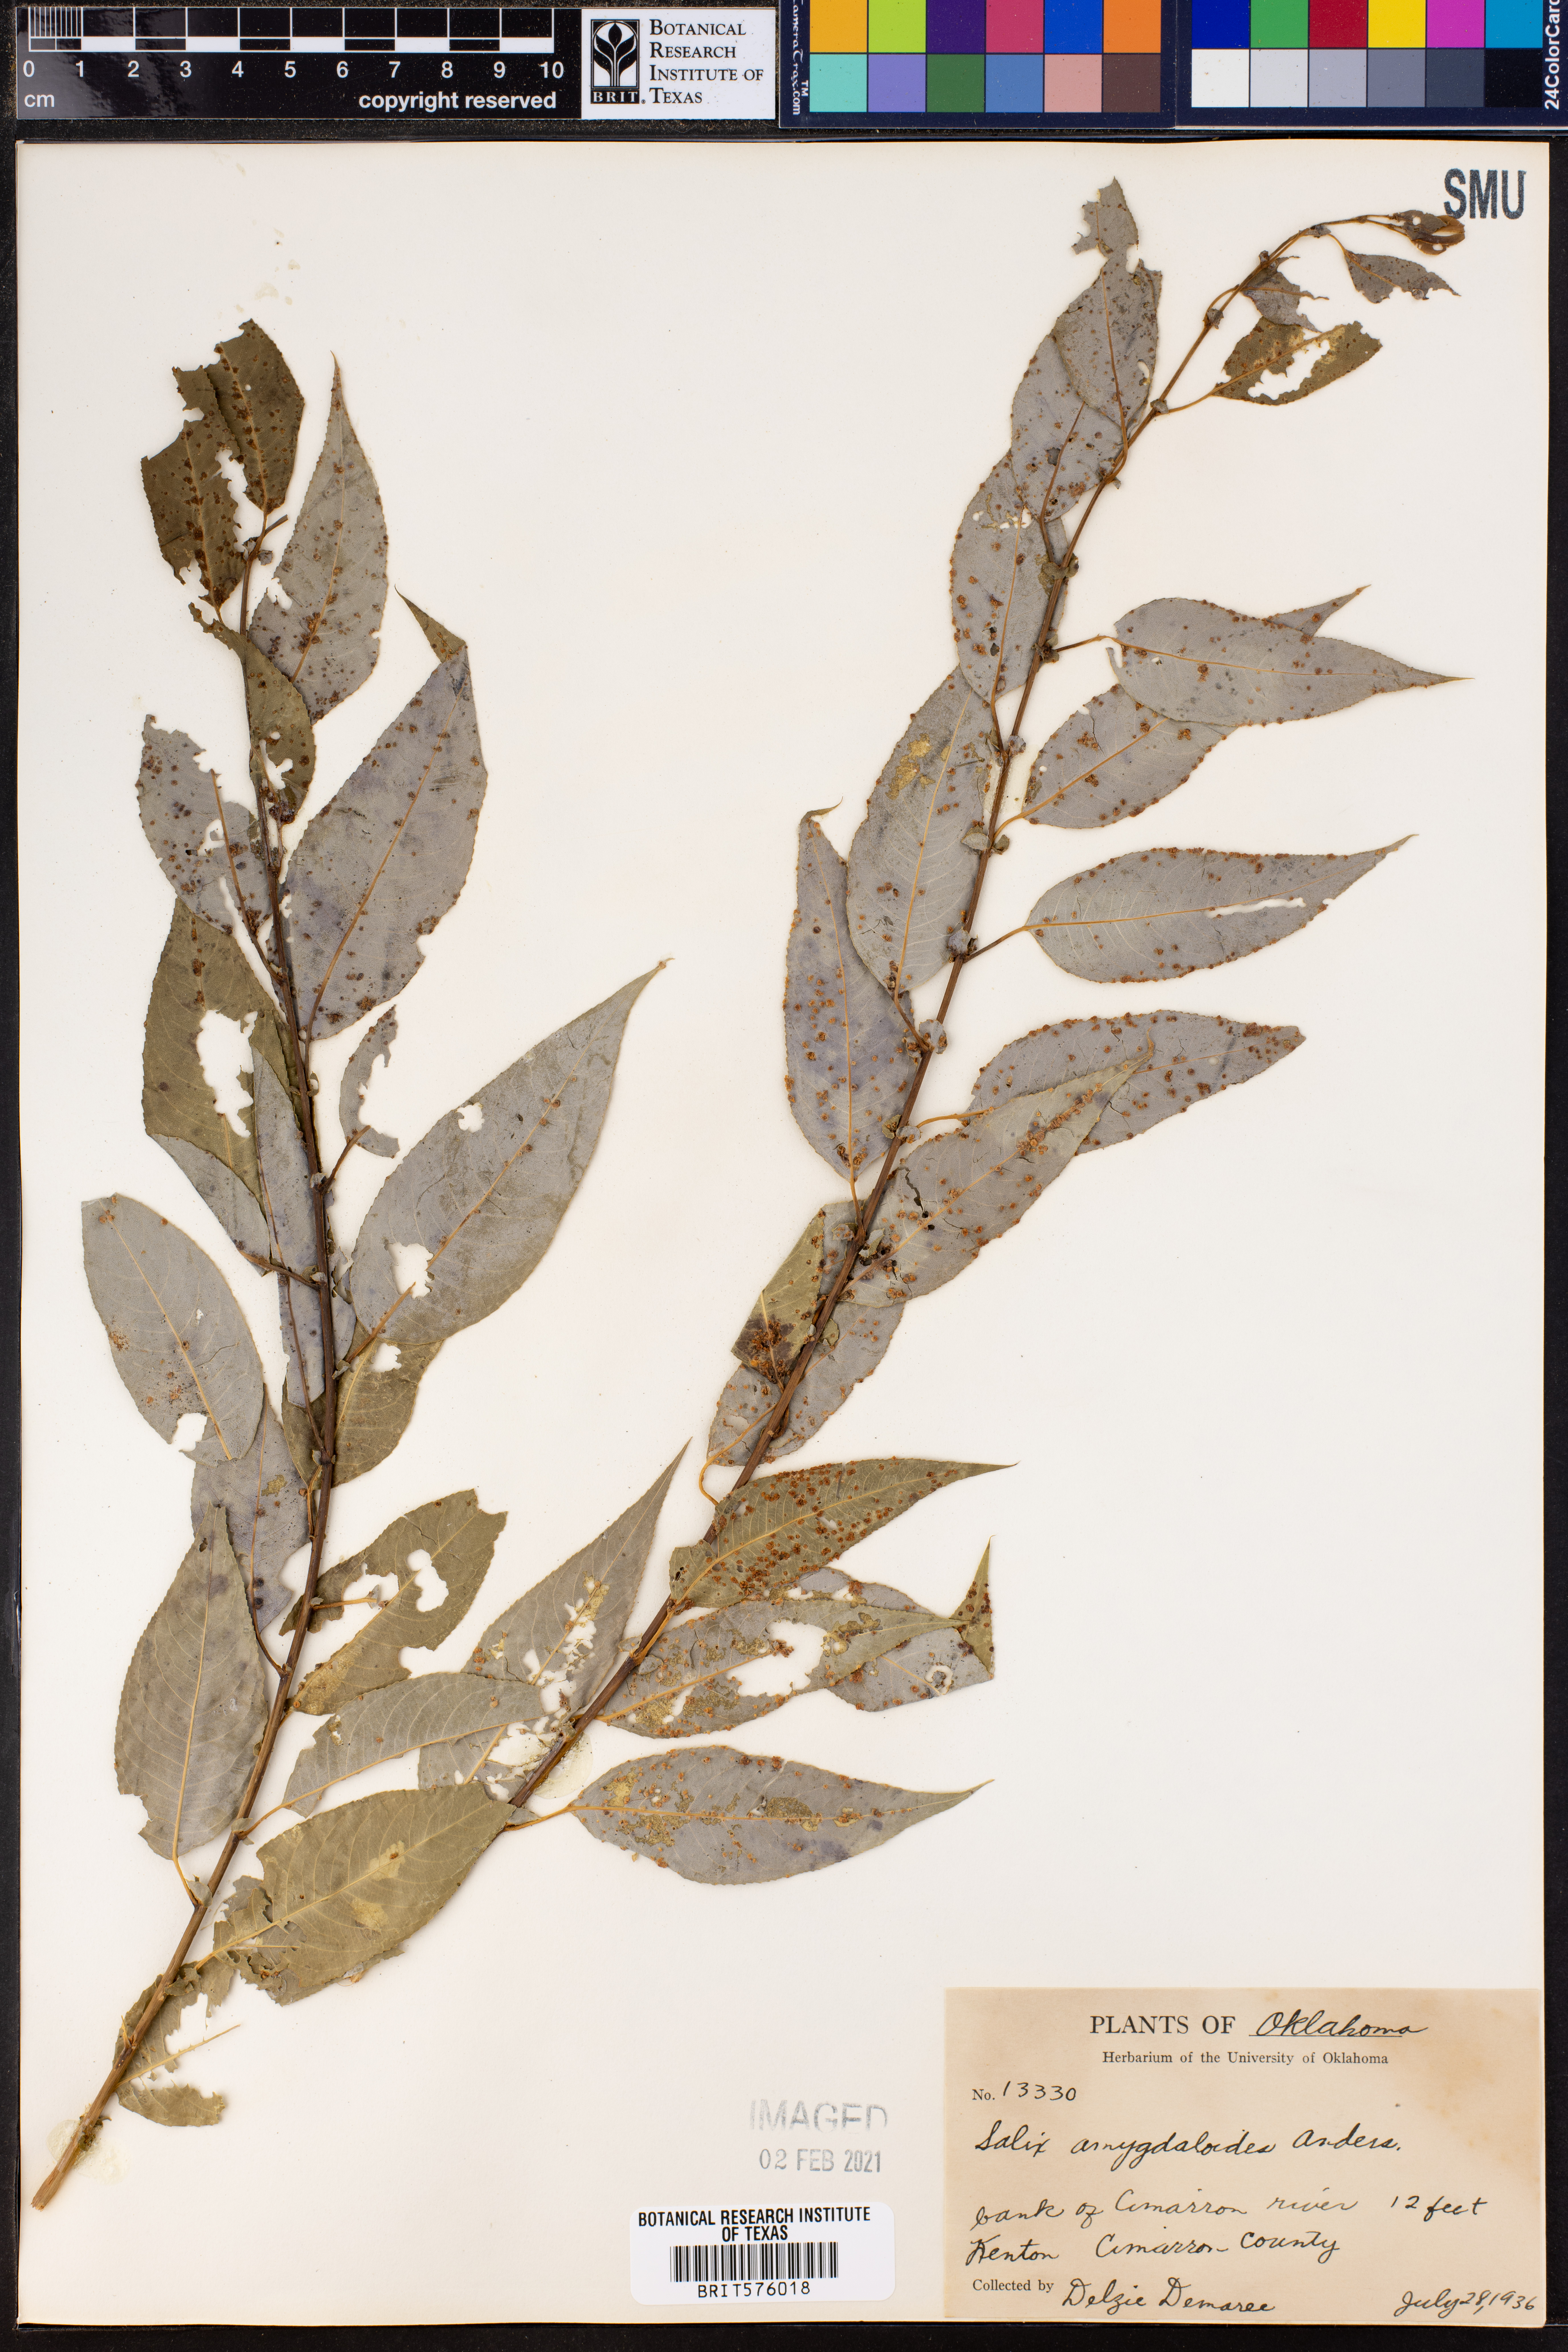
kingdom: Plantae
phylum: Tracheophyta
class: Magnoliopsida
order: Malpighiales
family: Salicaceae
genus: Salix
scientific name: Salix amygdaloides
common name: Peach leaf willow
